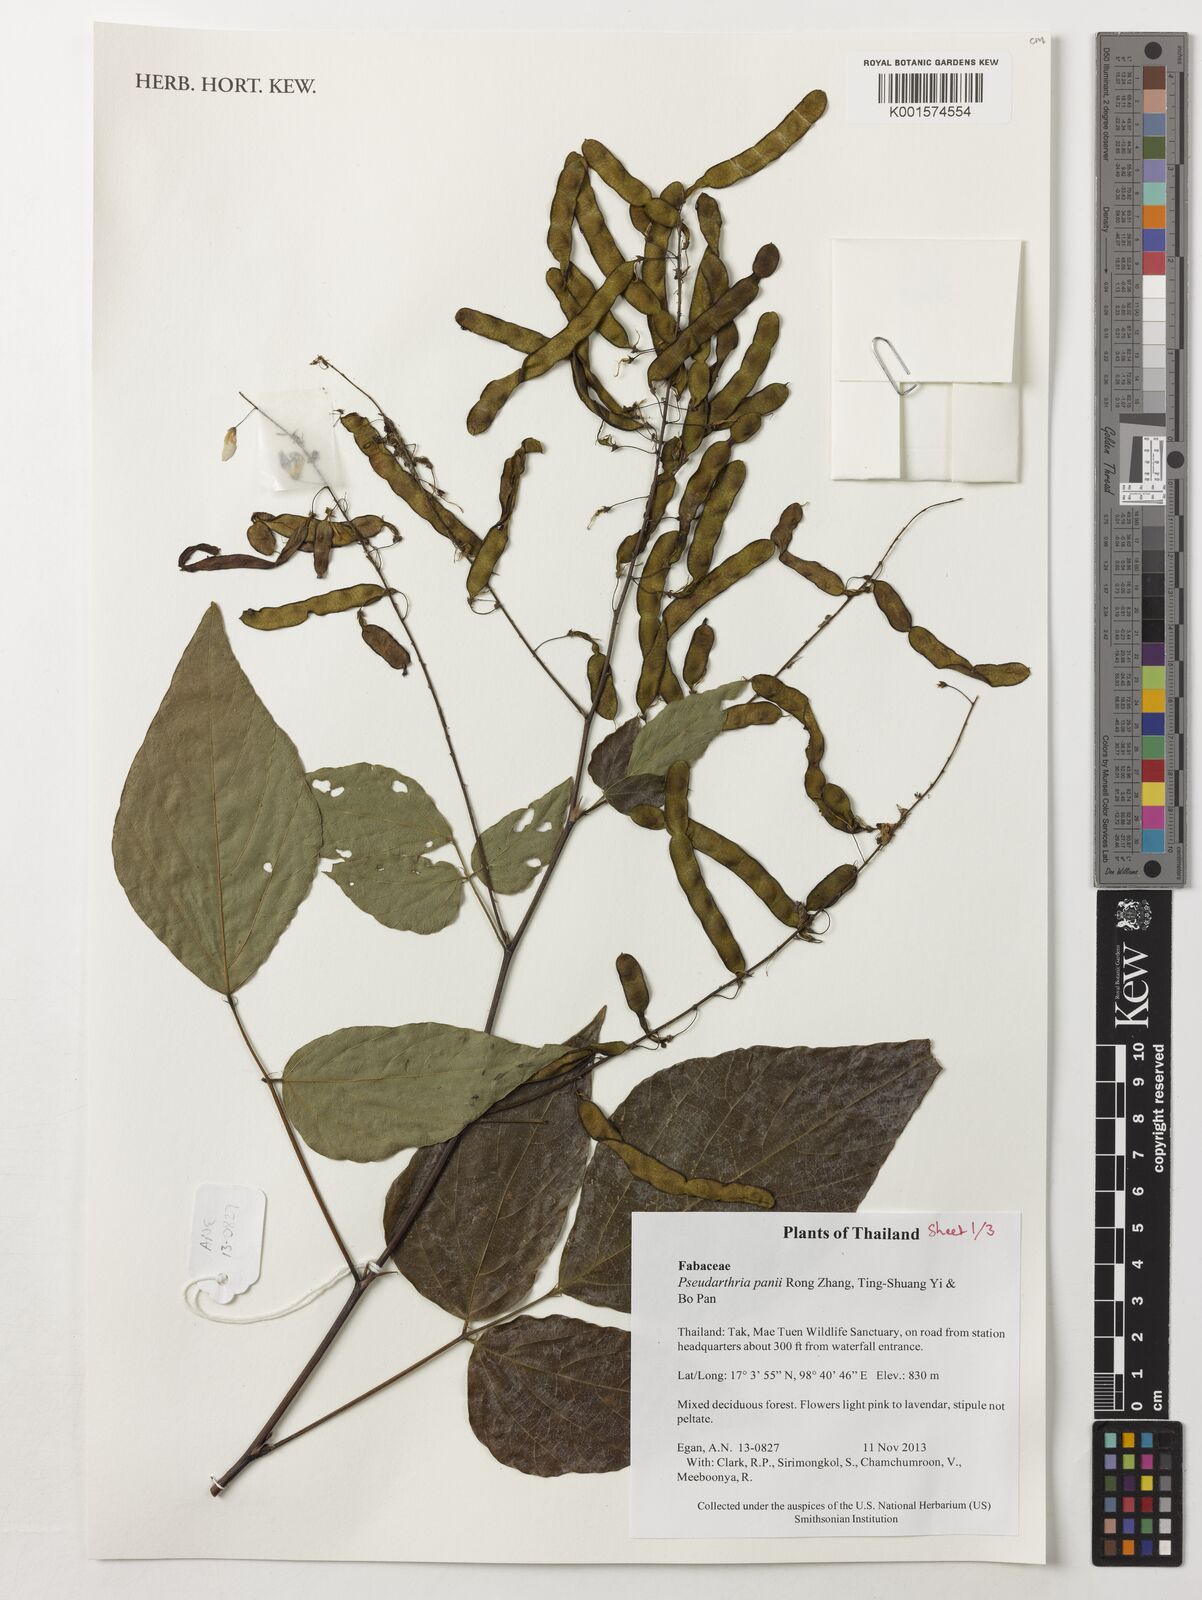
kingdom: Plantae
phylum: Tracheophyta
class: Magnoliopsida
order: Fabales
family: Fabaceae
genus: Pseudarthria
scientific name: Pseudarthria panii bis
